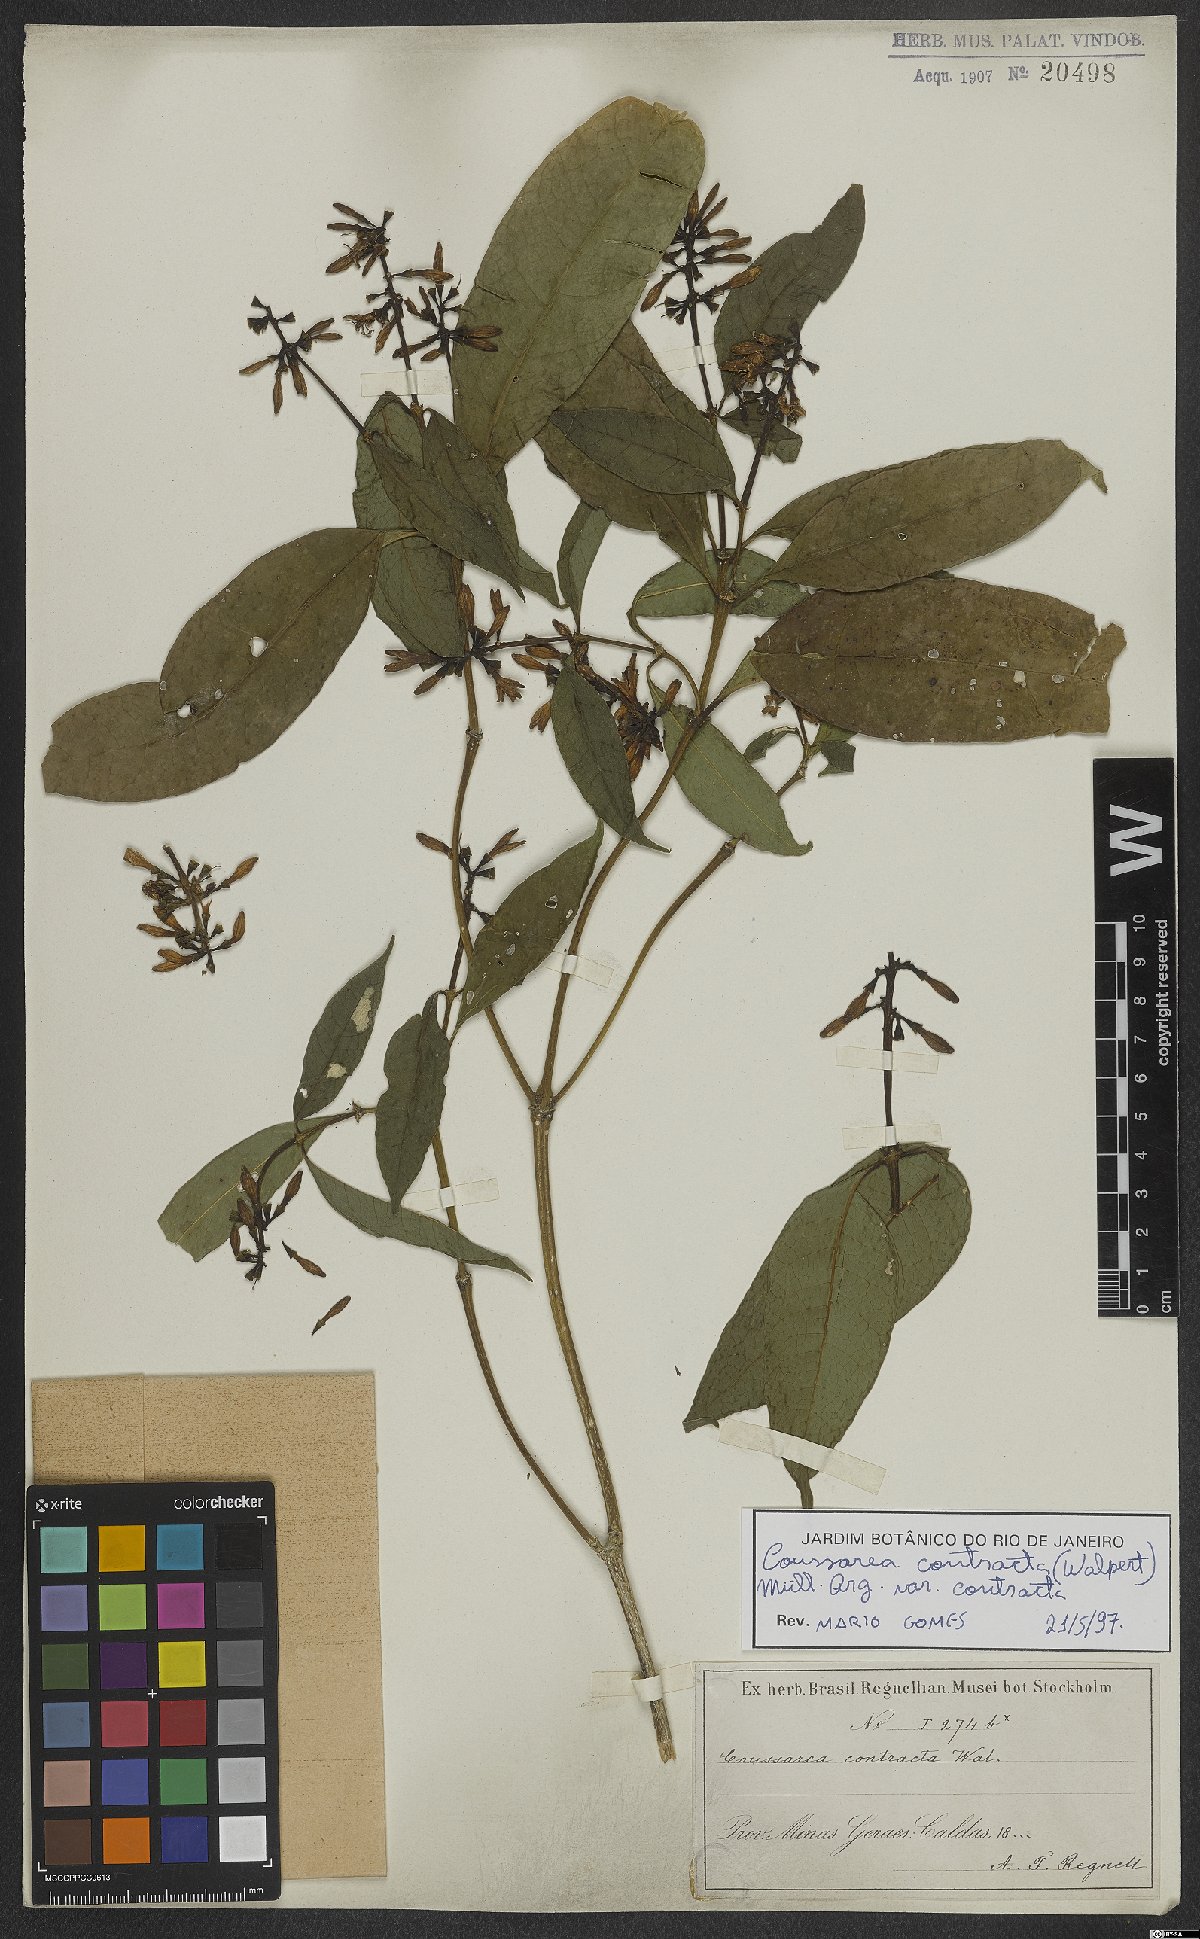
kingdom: Plantae
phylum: Tracheophyta
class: Magnoliopsida
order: Gentianales
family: Rubiaceae
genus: Coussarea
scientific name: Coussarea contracta
